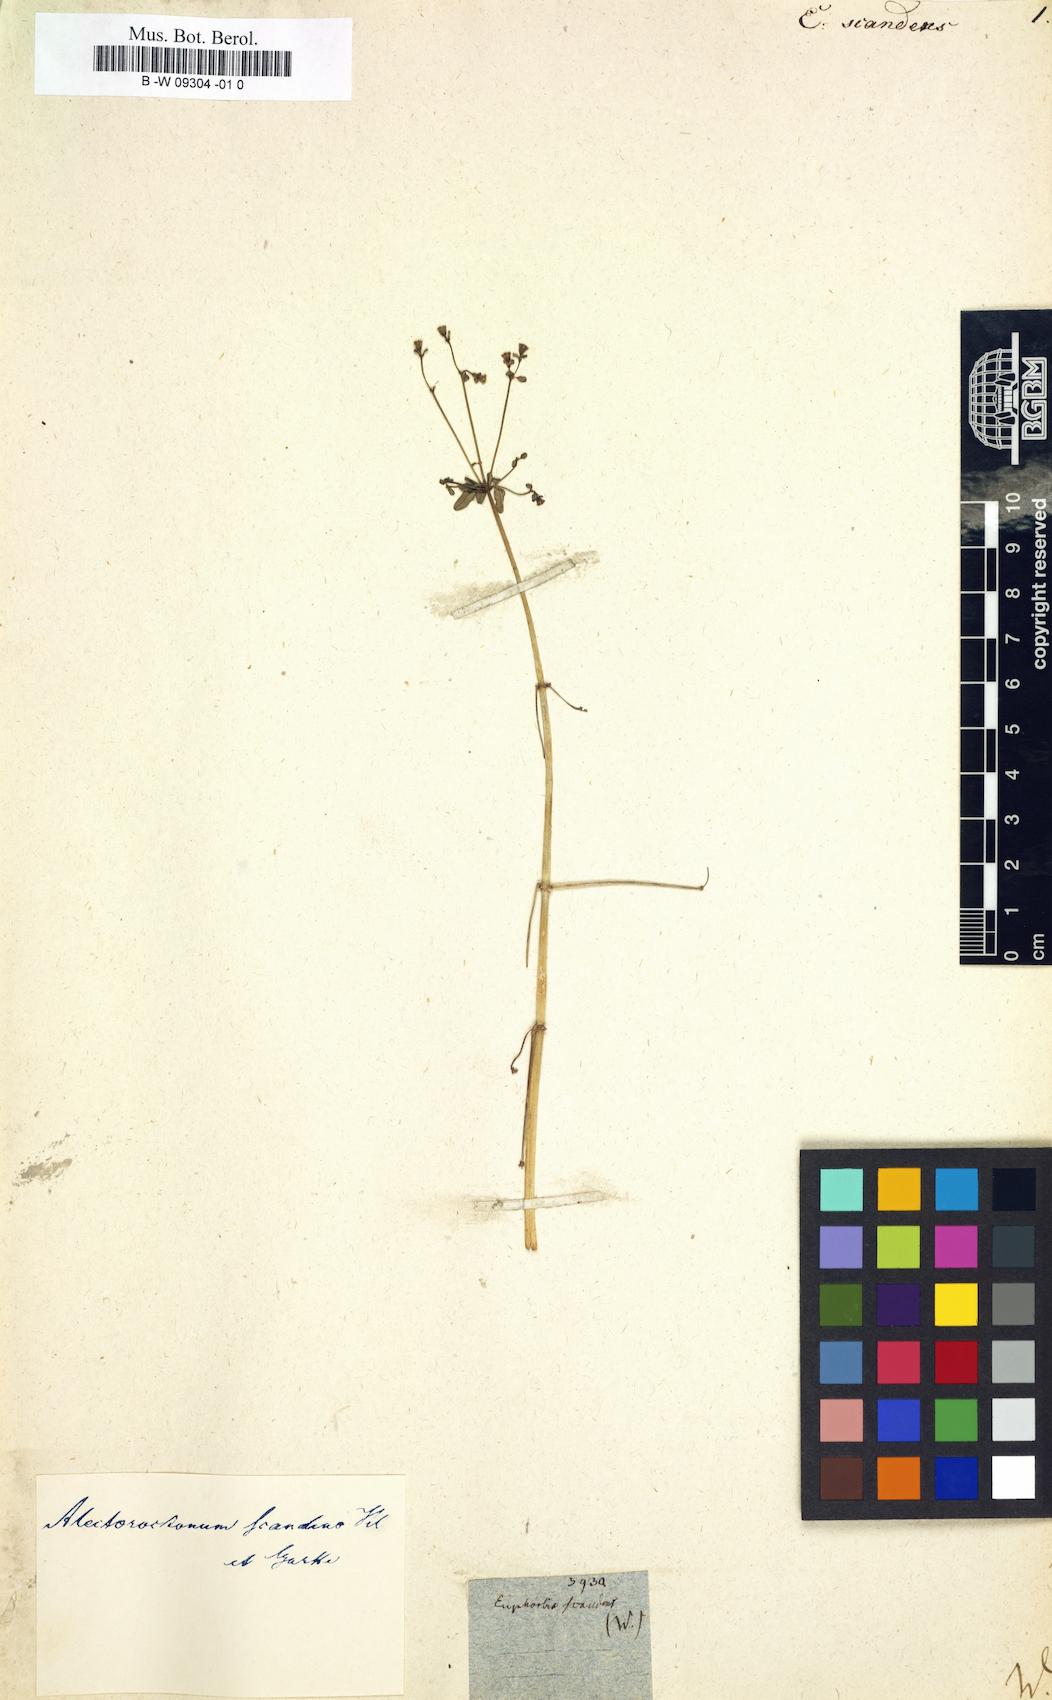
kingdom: Plantae
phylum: Tracheophyta
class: Magnoliopsida
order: Malpighiales
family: Euphorbiaceae
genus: Euphorbia
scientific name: Euphorbia scandens
